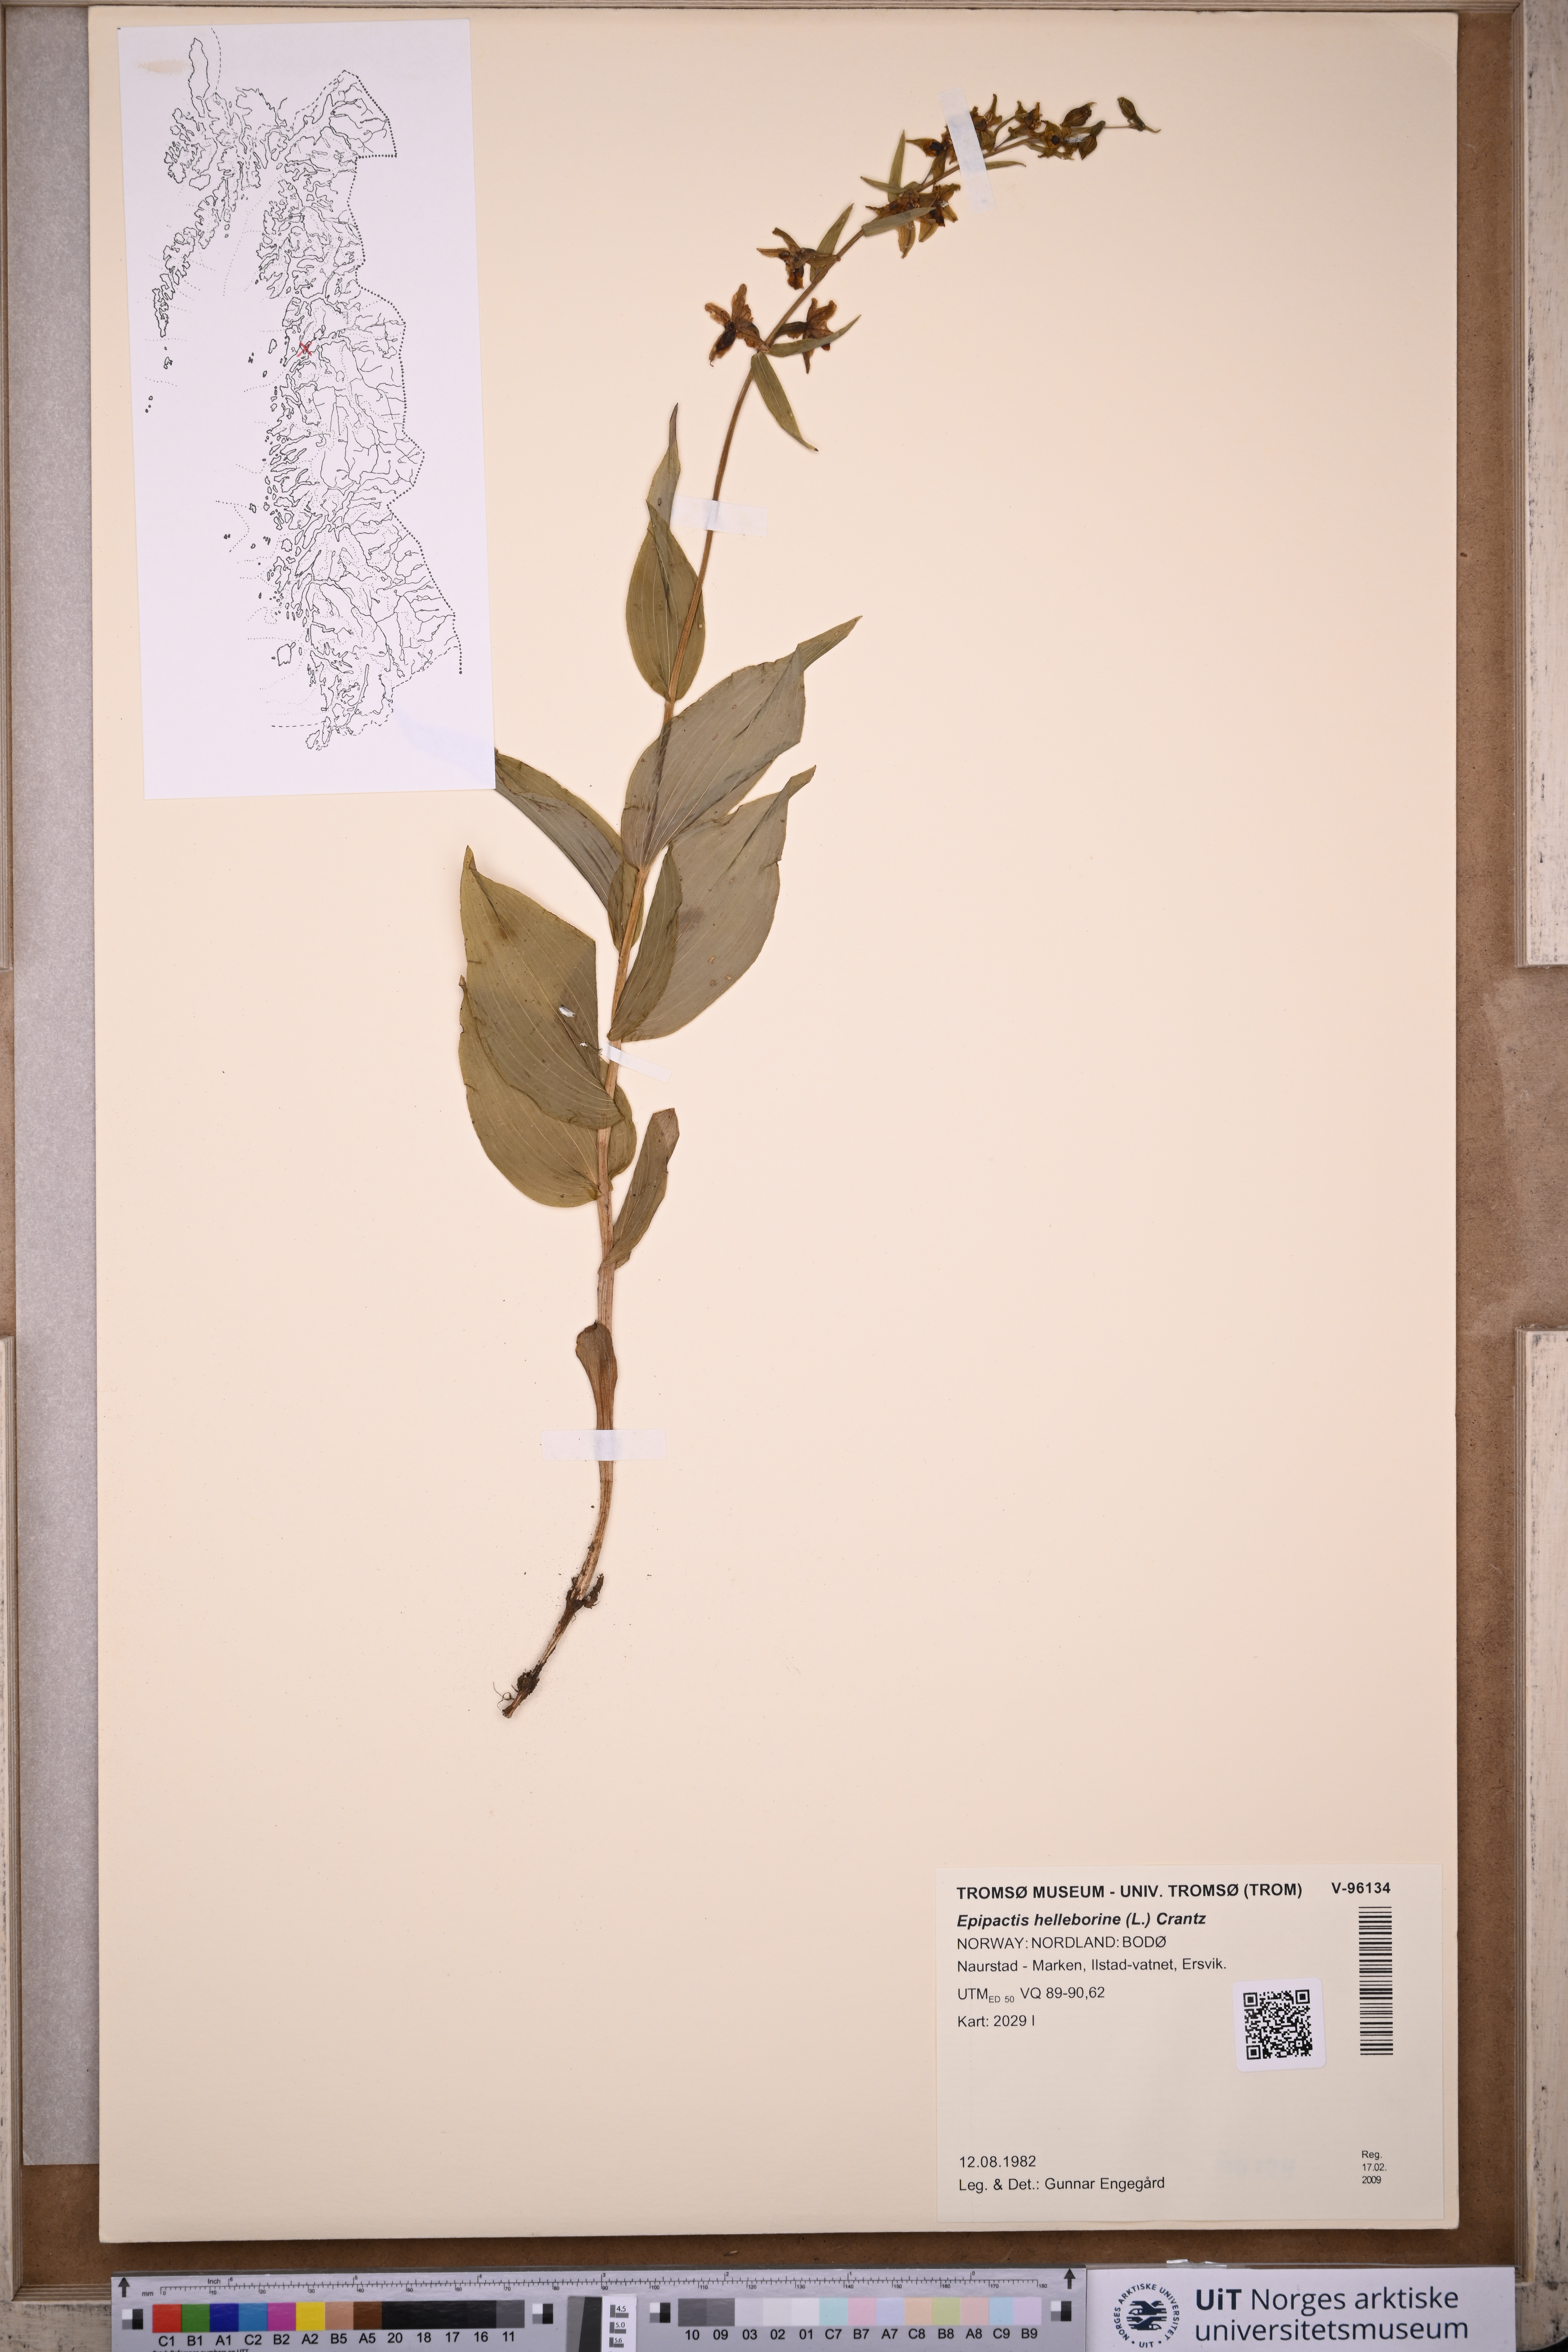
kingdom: Plantae
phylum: Tracheophyta
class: Liliopsida
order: Asparagales
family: Orchidaceae
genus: Epipactis
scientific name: Epipactis helleborine
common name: Broad-leaved helleborine
